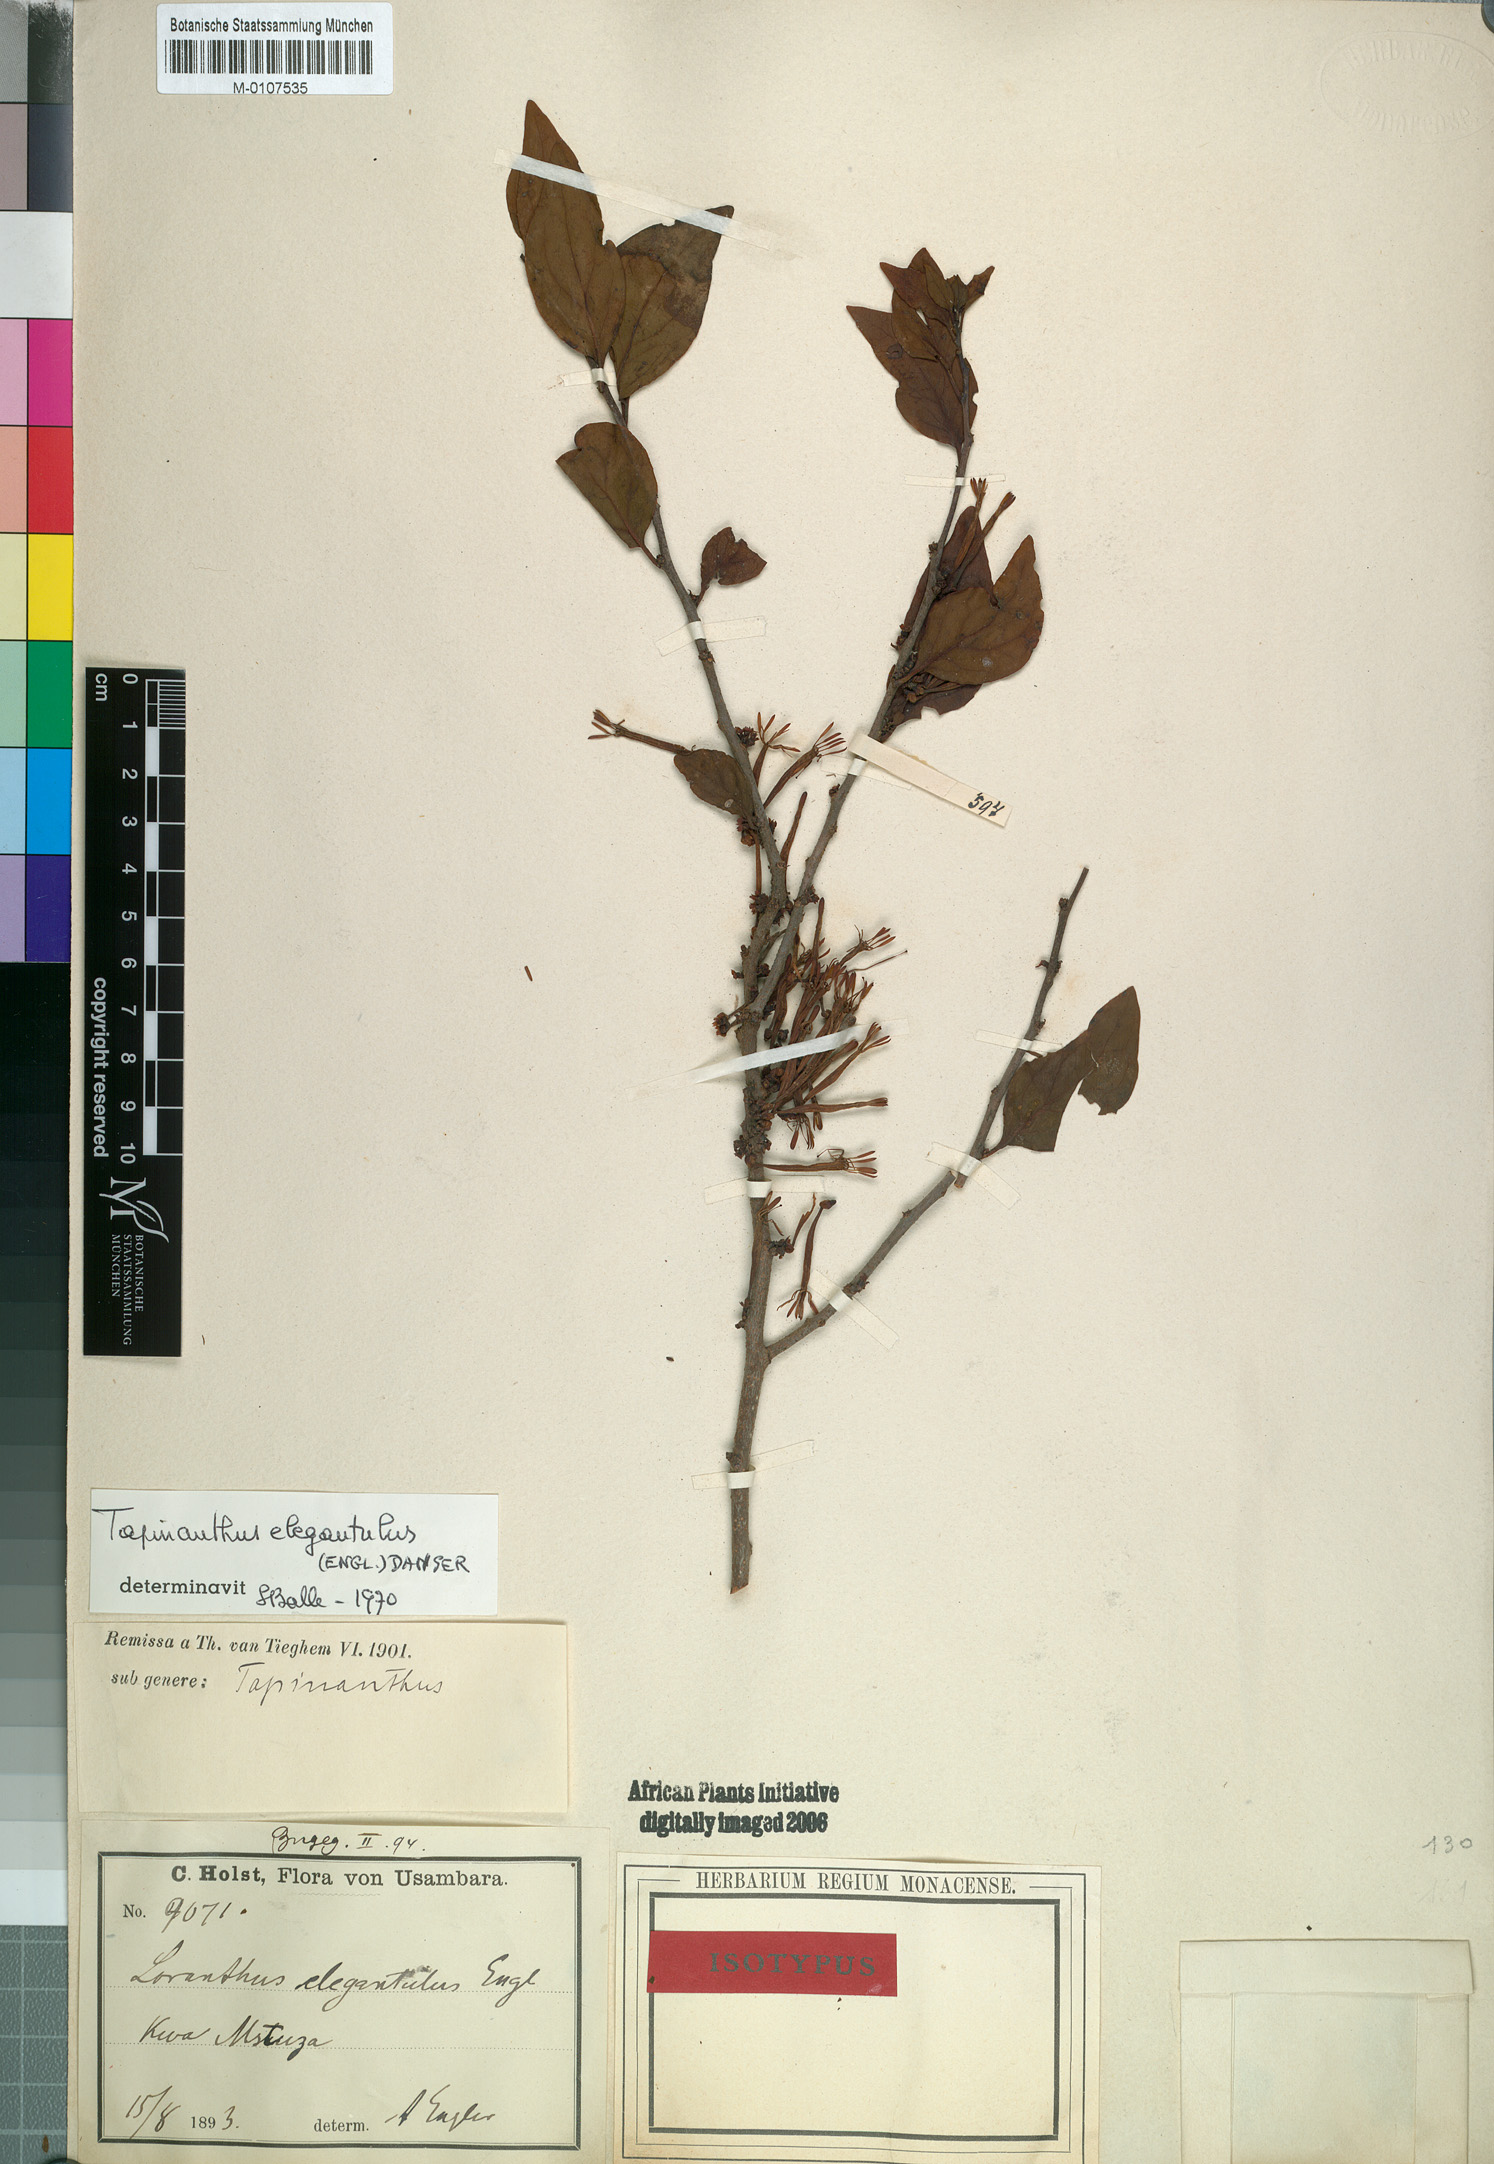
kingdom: Plantae
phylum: Tracheophyta
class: Magnoliopsida
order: Santalales
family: Loranthaceae
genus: Loranthella
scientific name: Loranthella kilimandscharica
